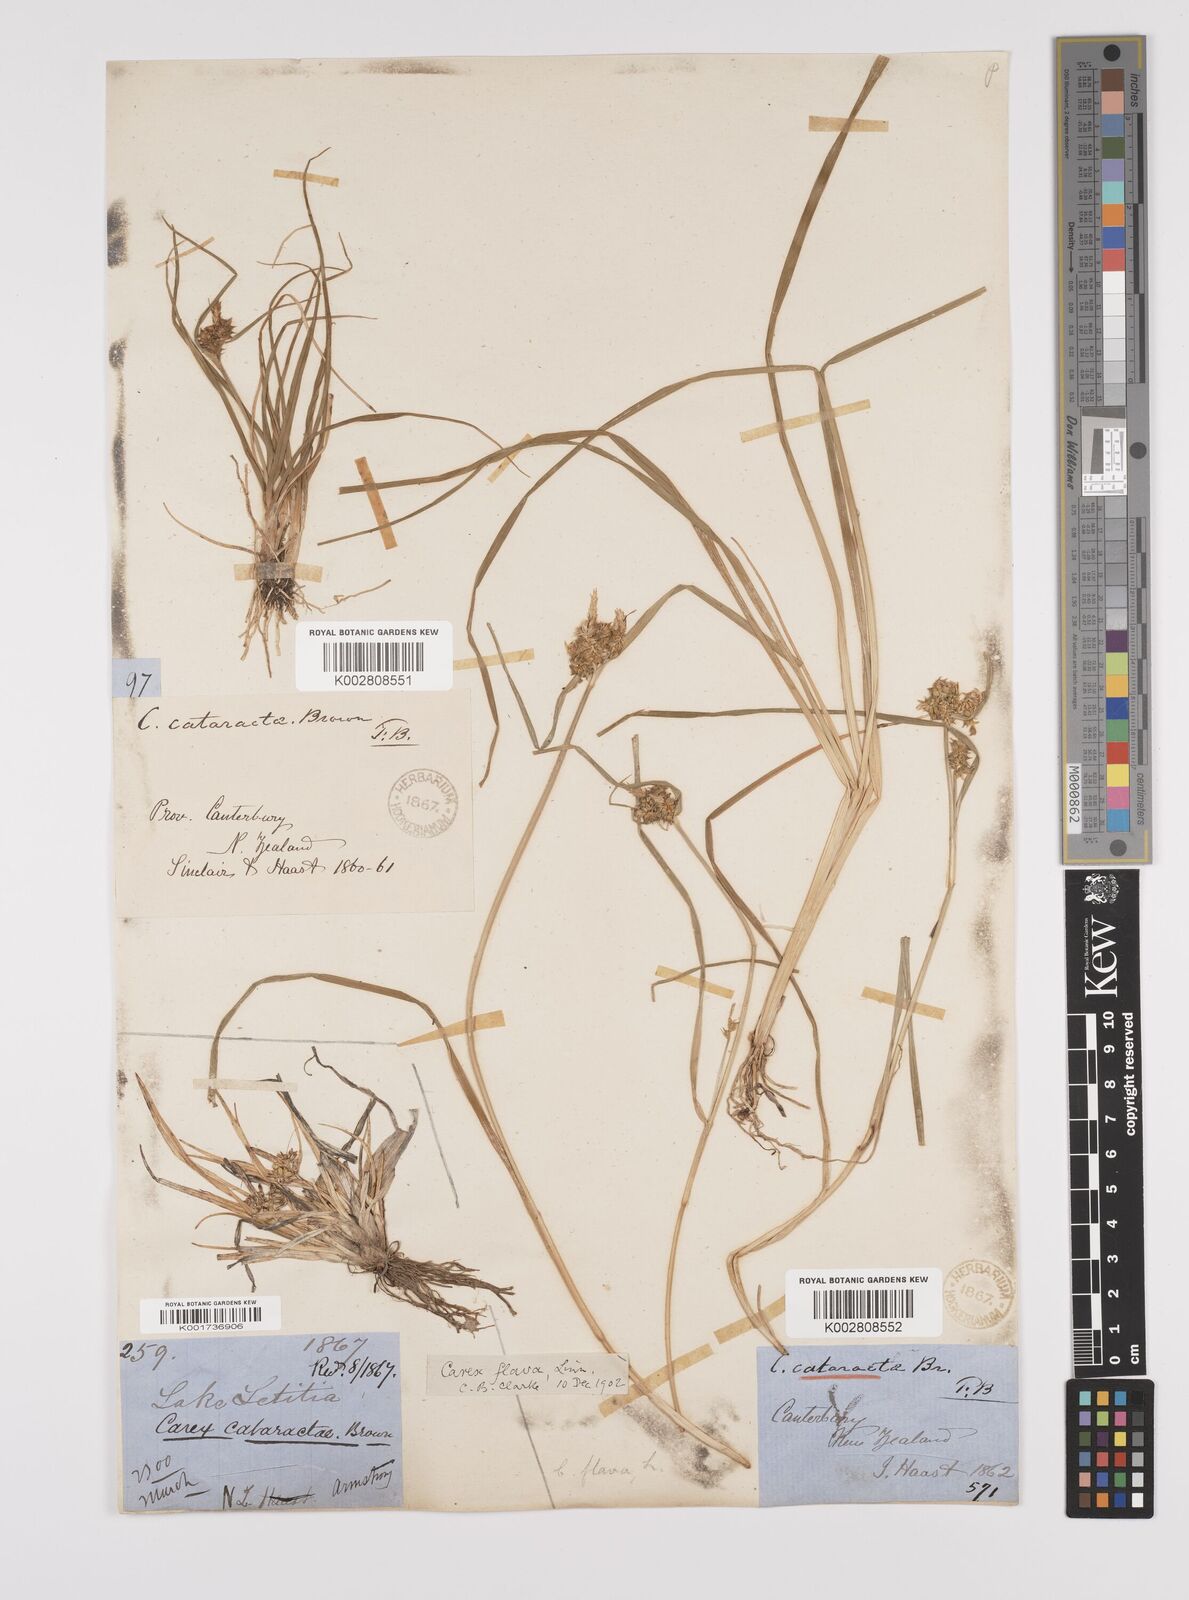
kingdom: Plantae
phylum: Tracheophyta
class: Liliopsida
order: Poales
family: Cyperaceae
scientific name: Cyperaceae
